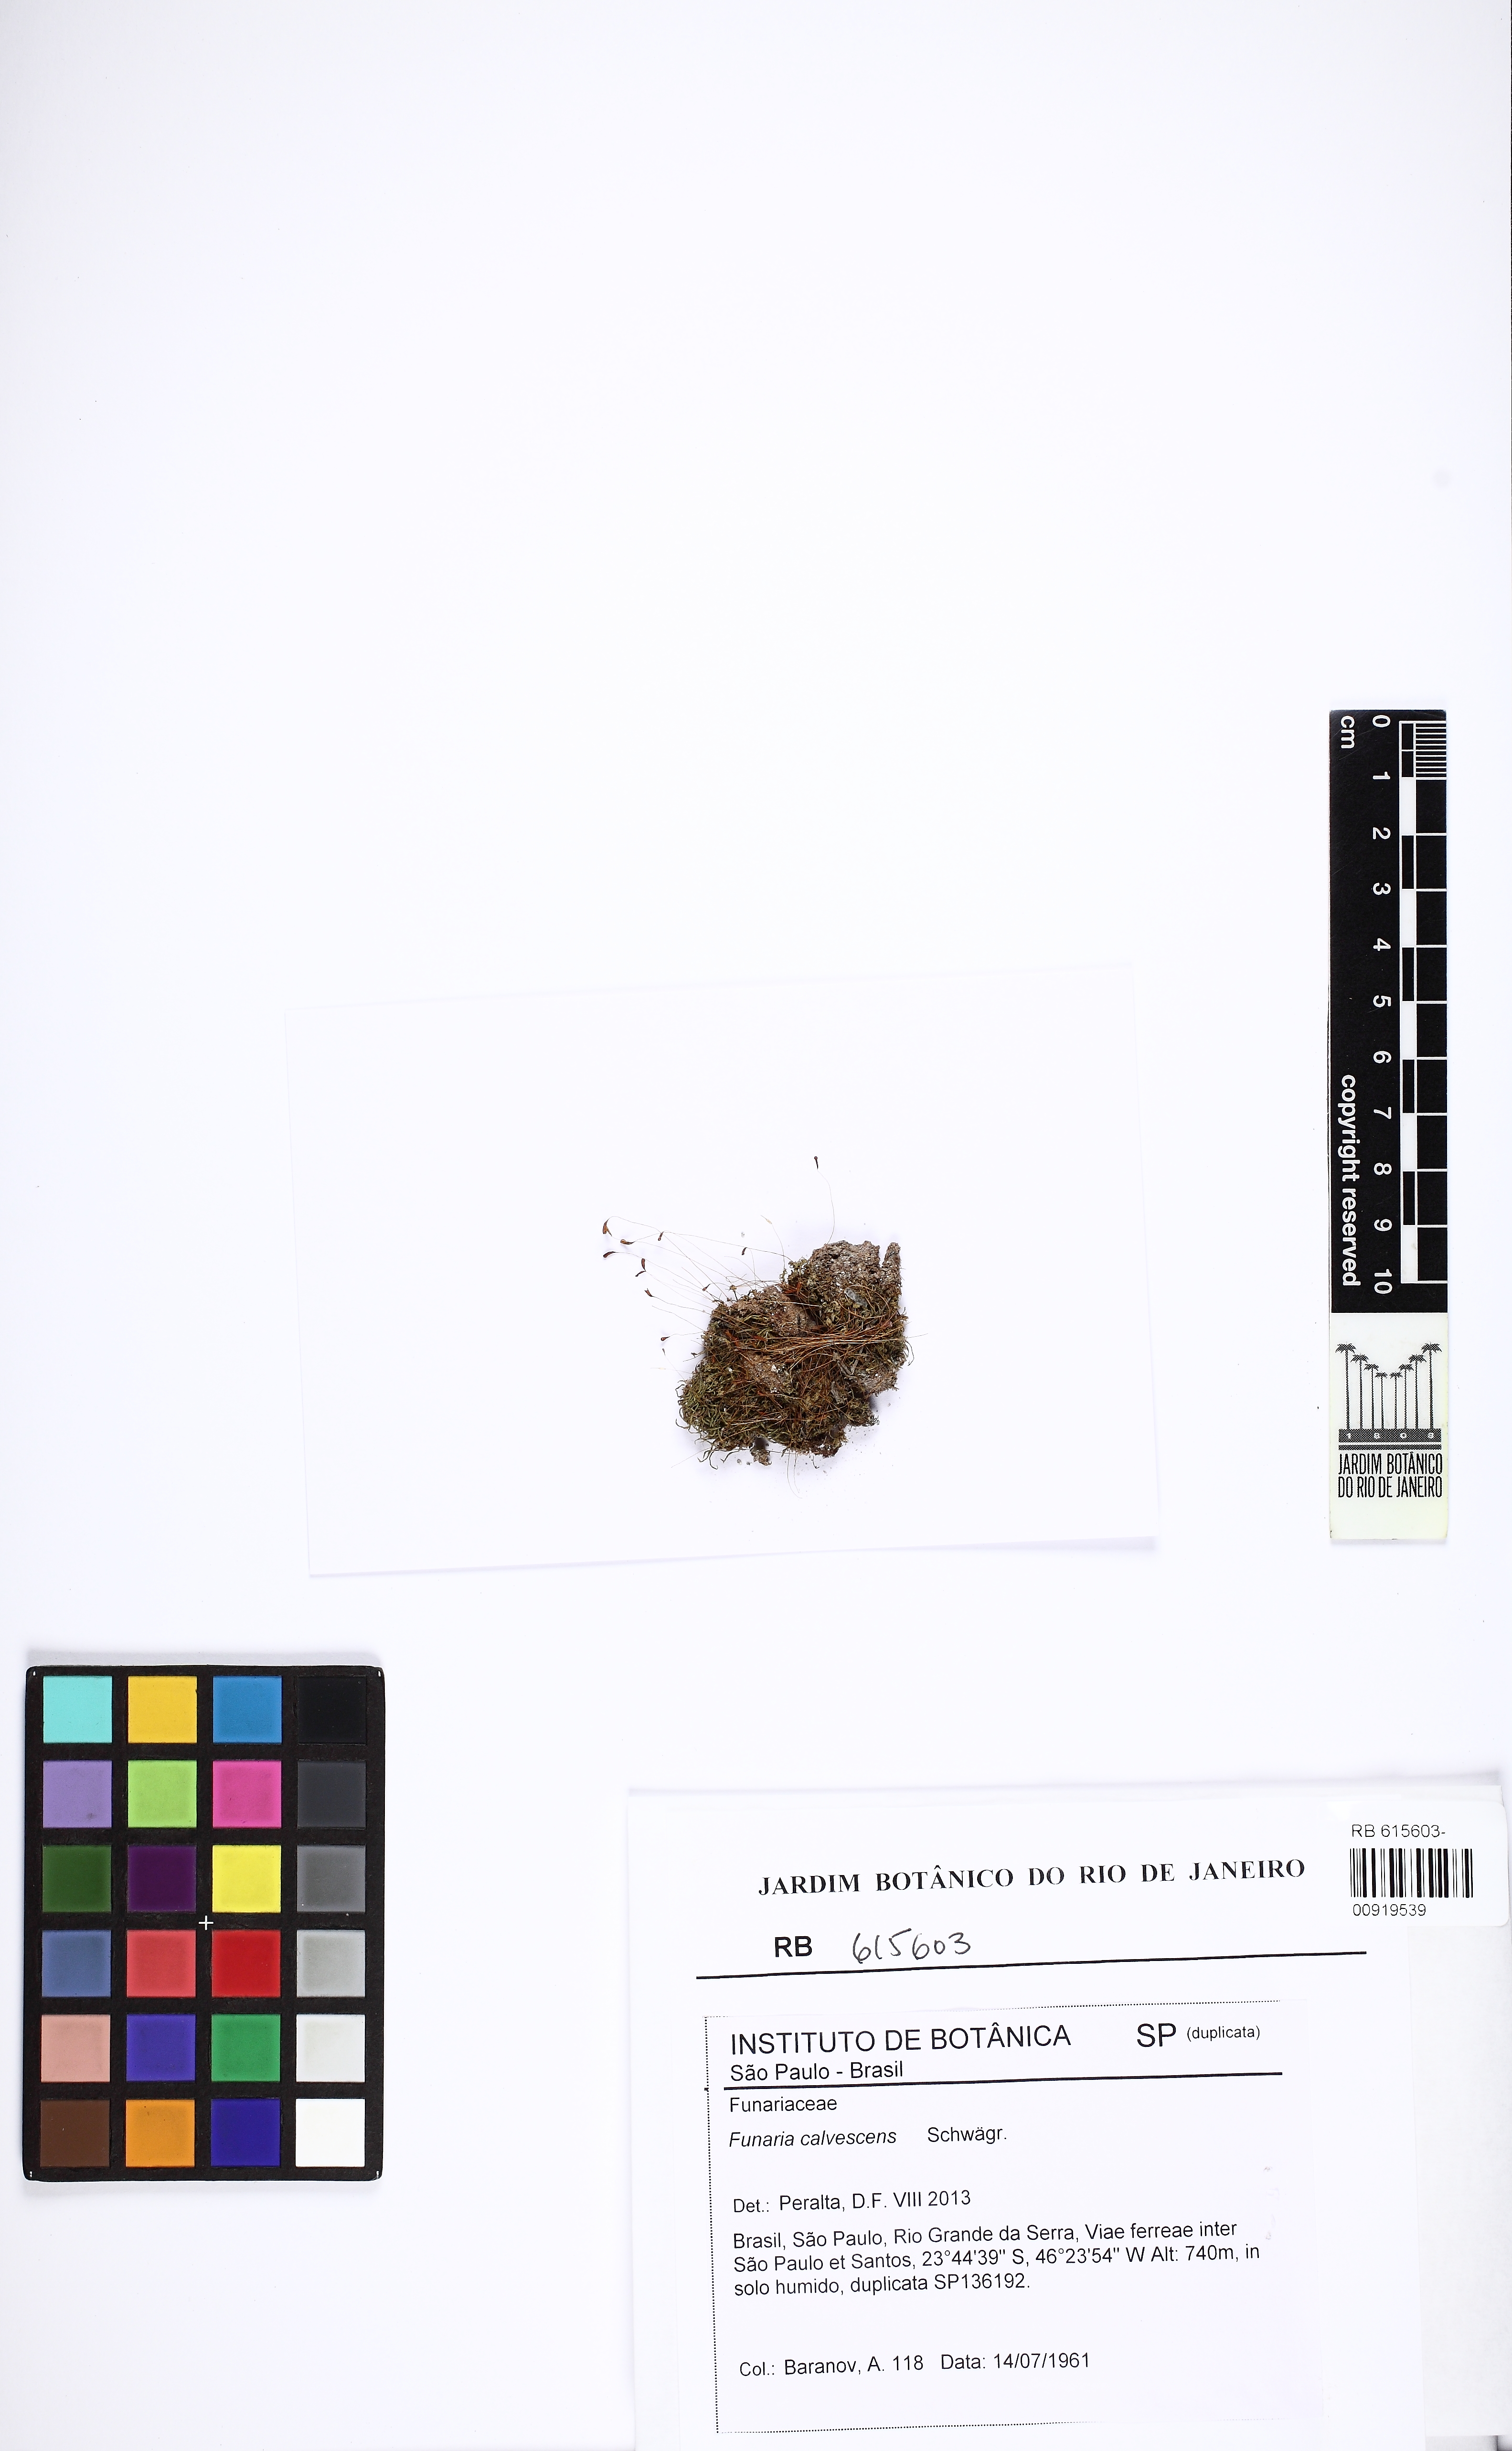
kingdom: Plantae
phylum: Bryophyta
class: Bryopsida
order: Funariales
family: Funariaceae
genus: Funaria
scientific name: Funaria calvescens
